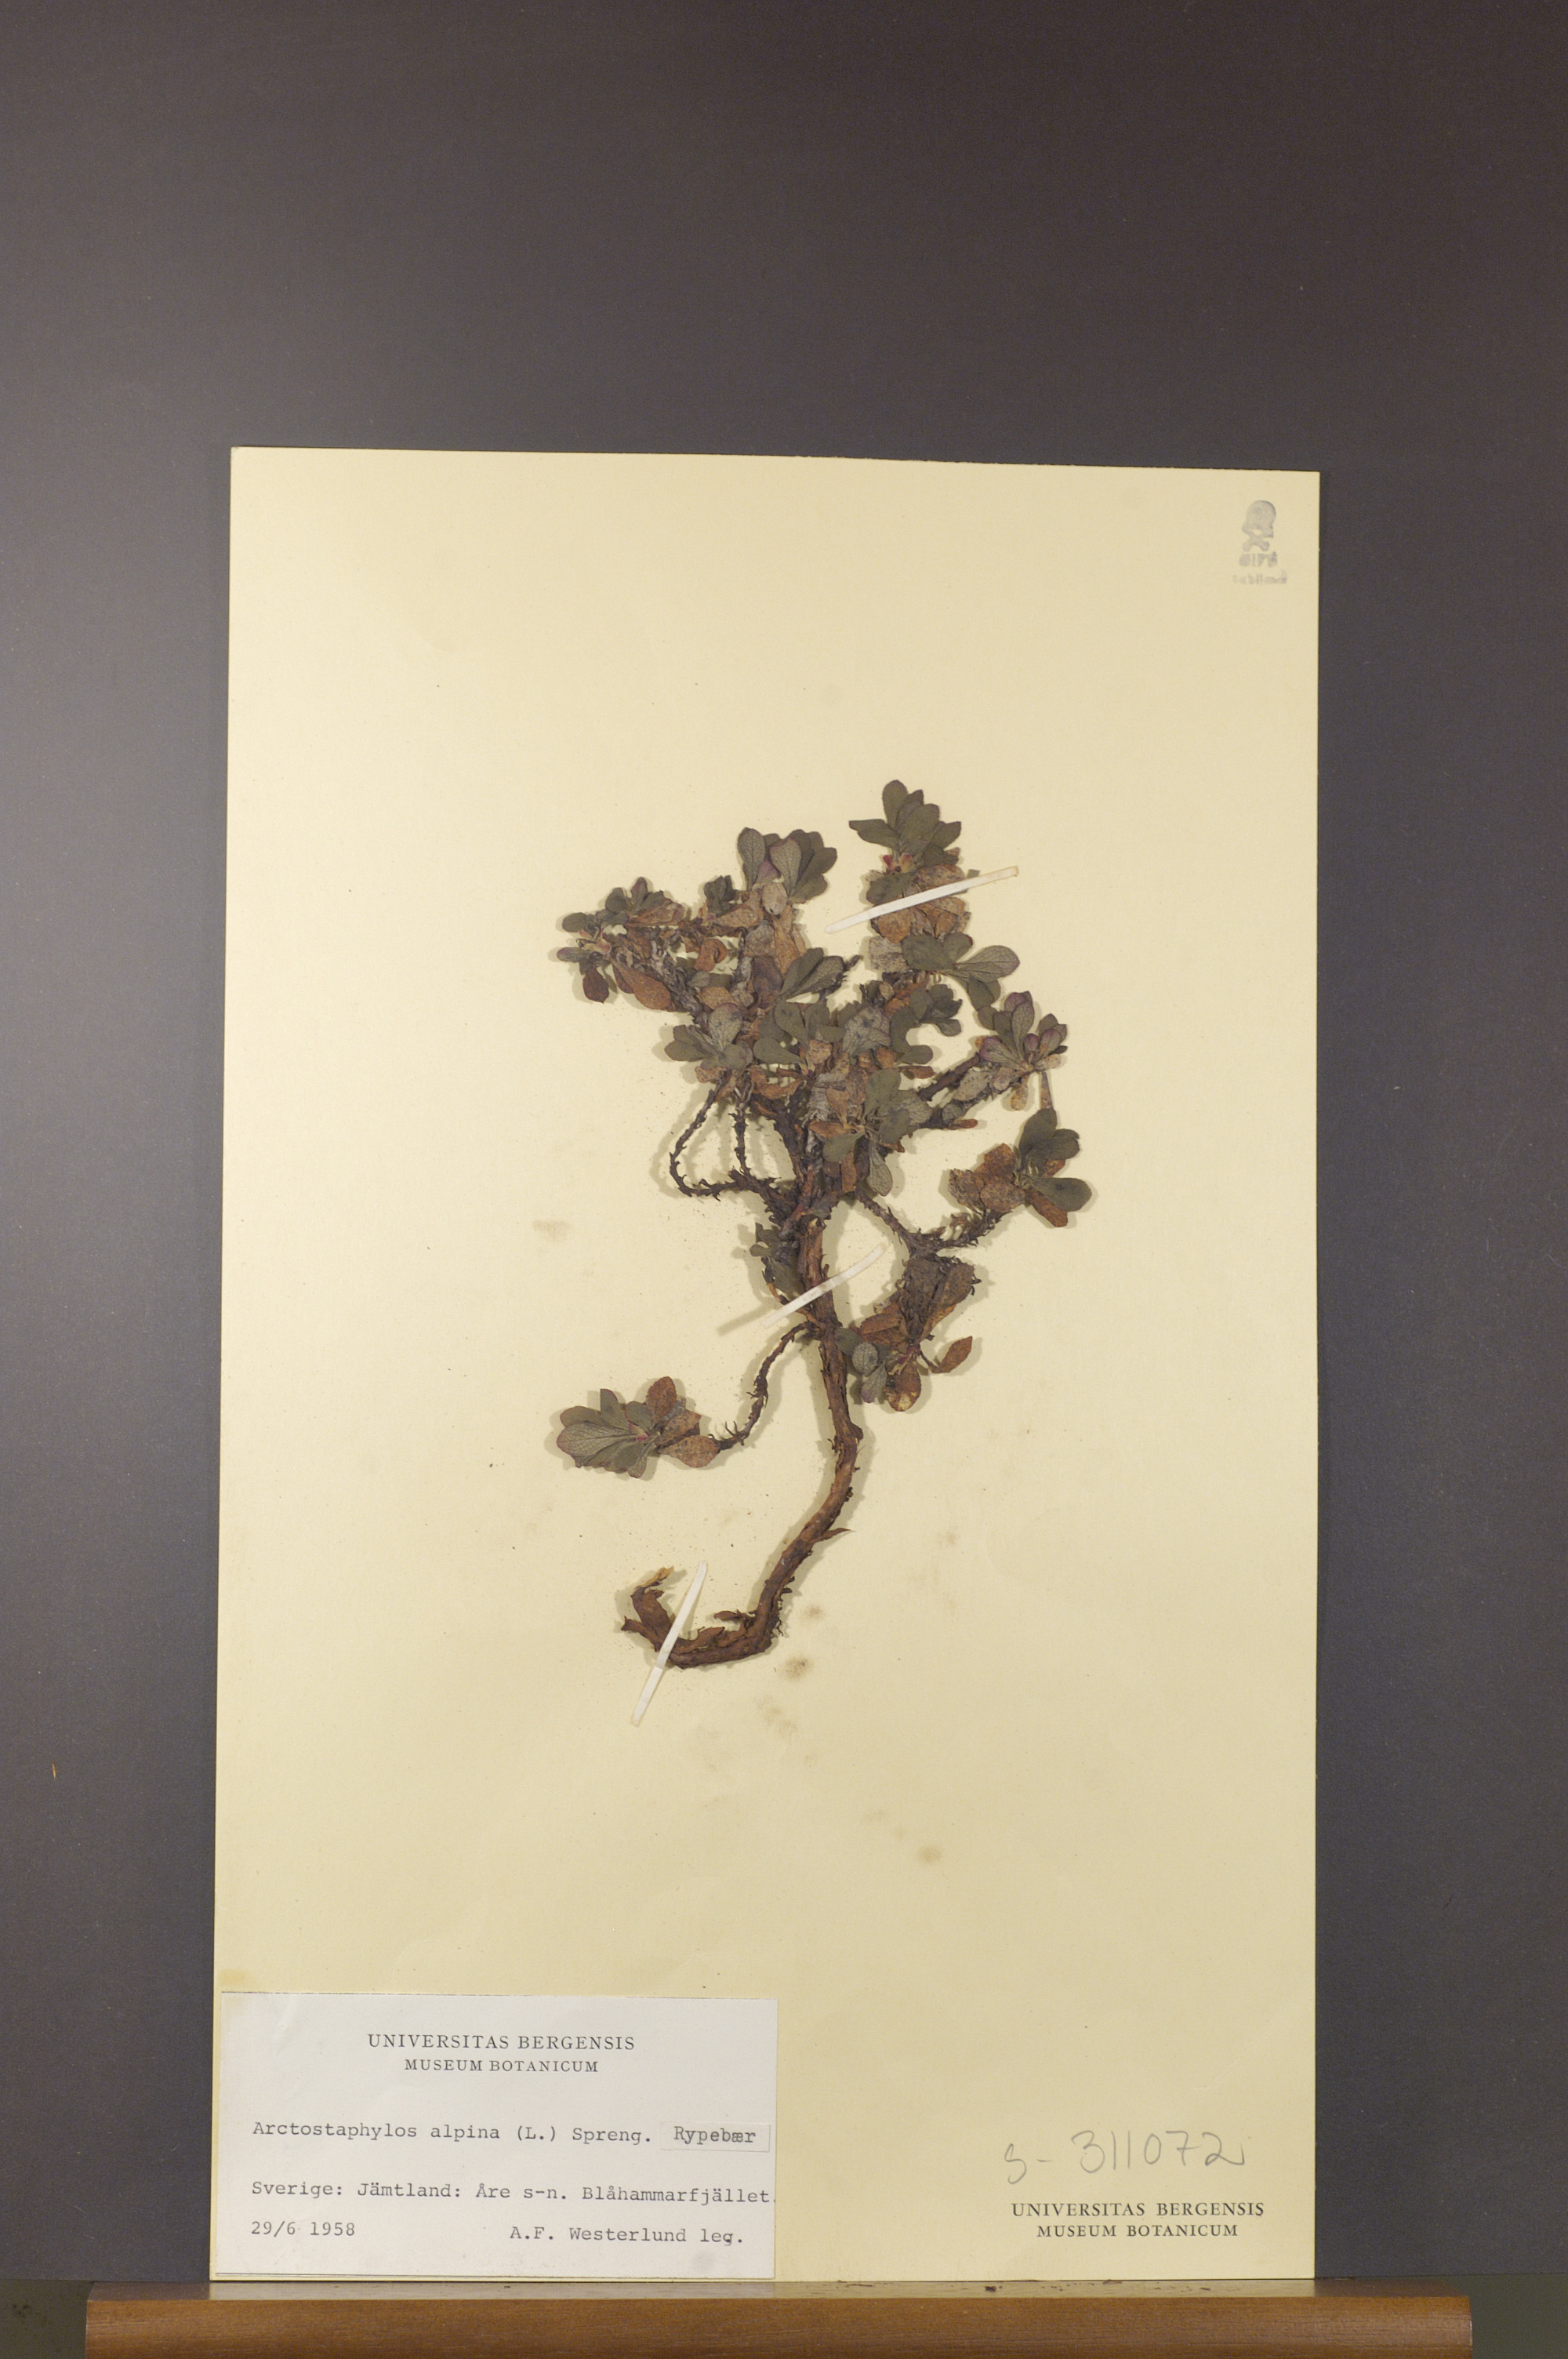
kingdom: Plantae
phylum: Tracheophyta
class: Magnoliopsida
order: Ericales
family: Ericaceae
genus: Arctostaphylos
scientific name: Arctostaphylos alpinus
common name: Alpine bearberry
